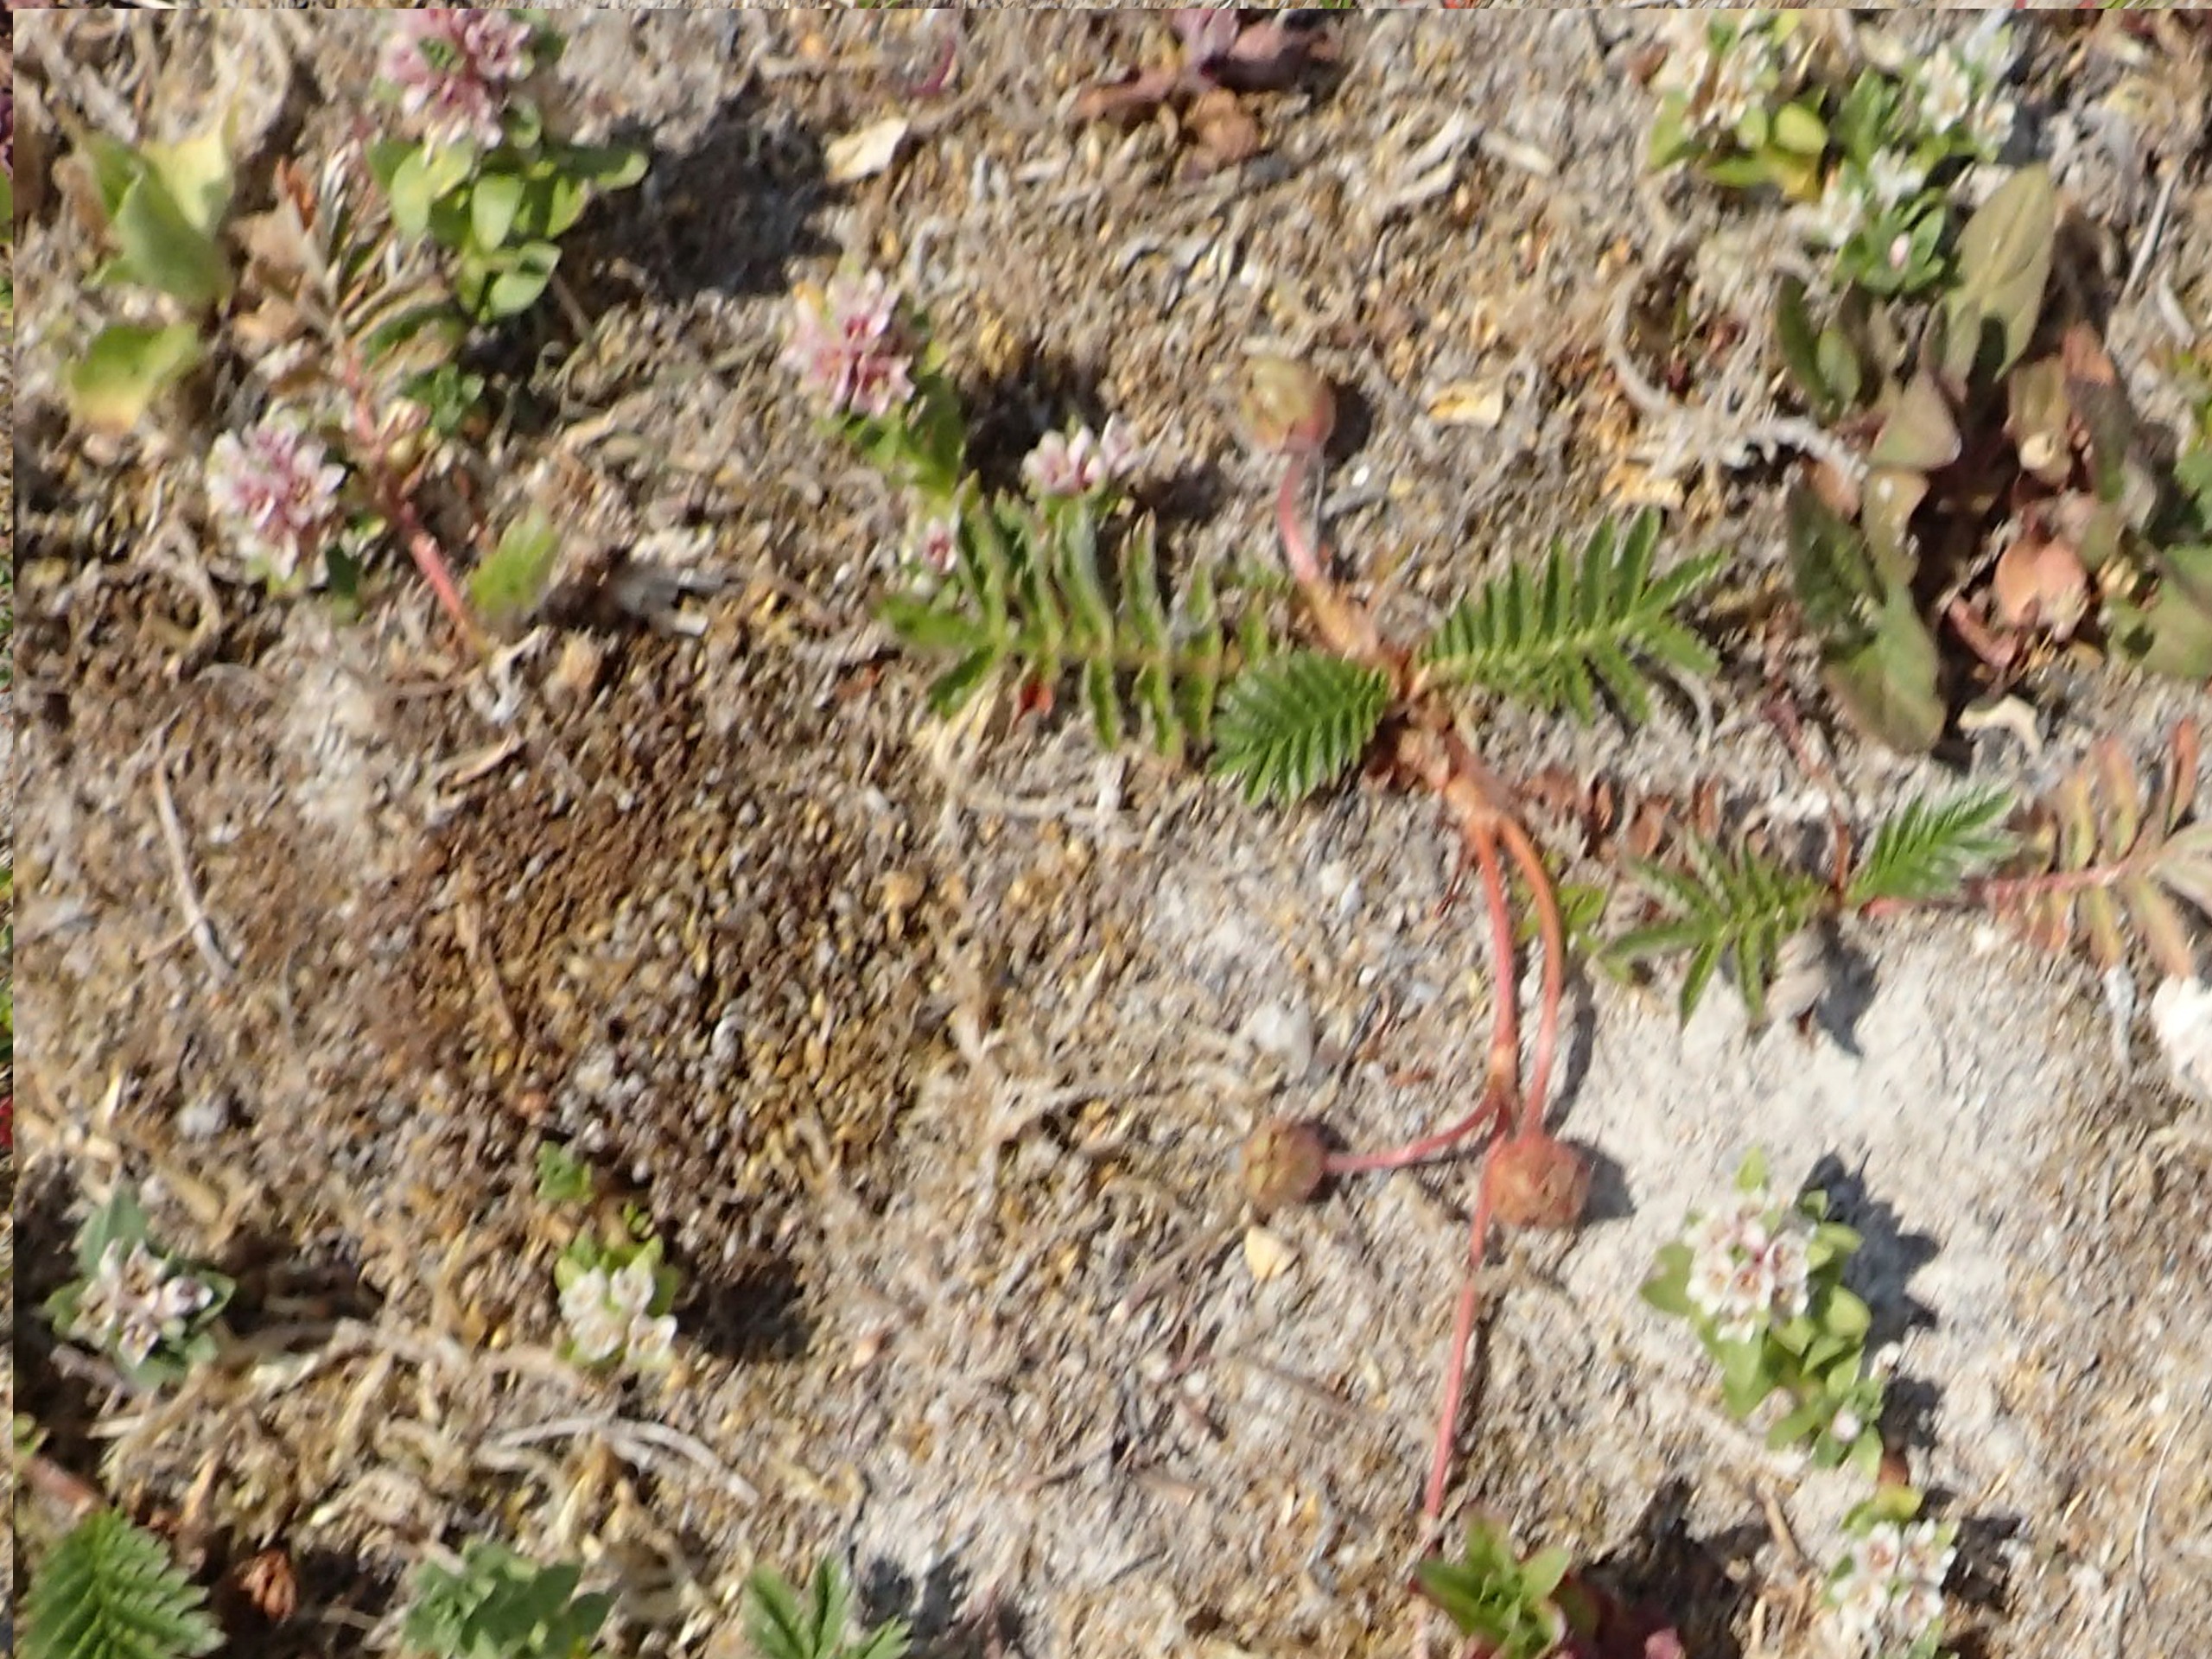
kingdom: Plantae
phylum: Tracheophyta
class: Magnoliopsida
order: Rosales
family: Rosaceae
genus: Argentina
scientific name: Argentina anserina
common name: Gåsepotentil
